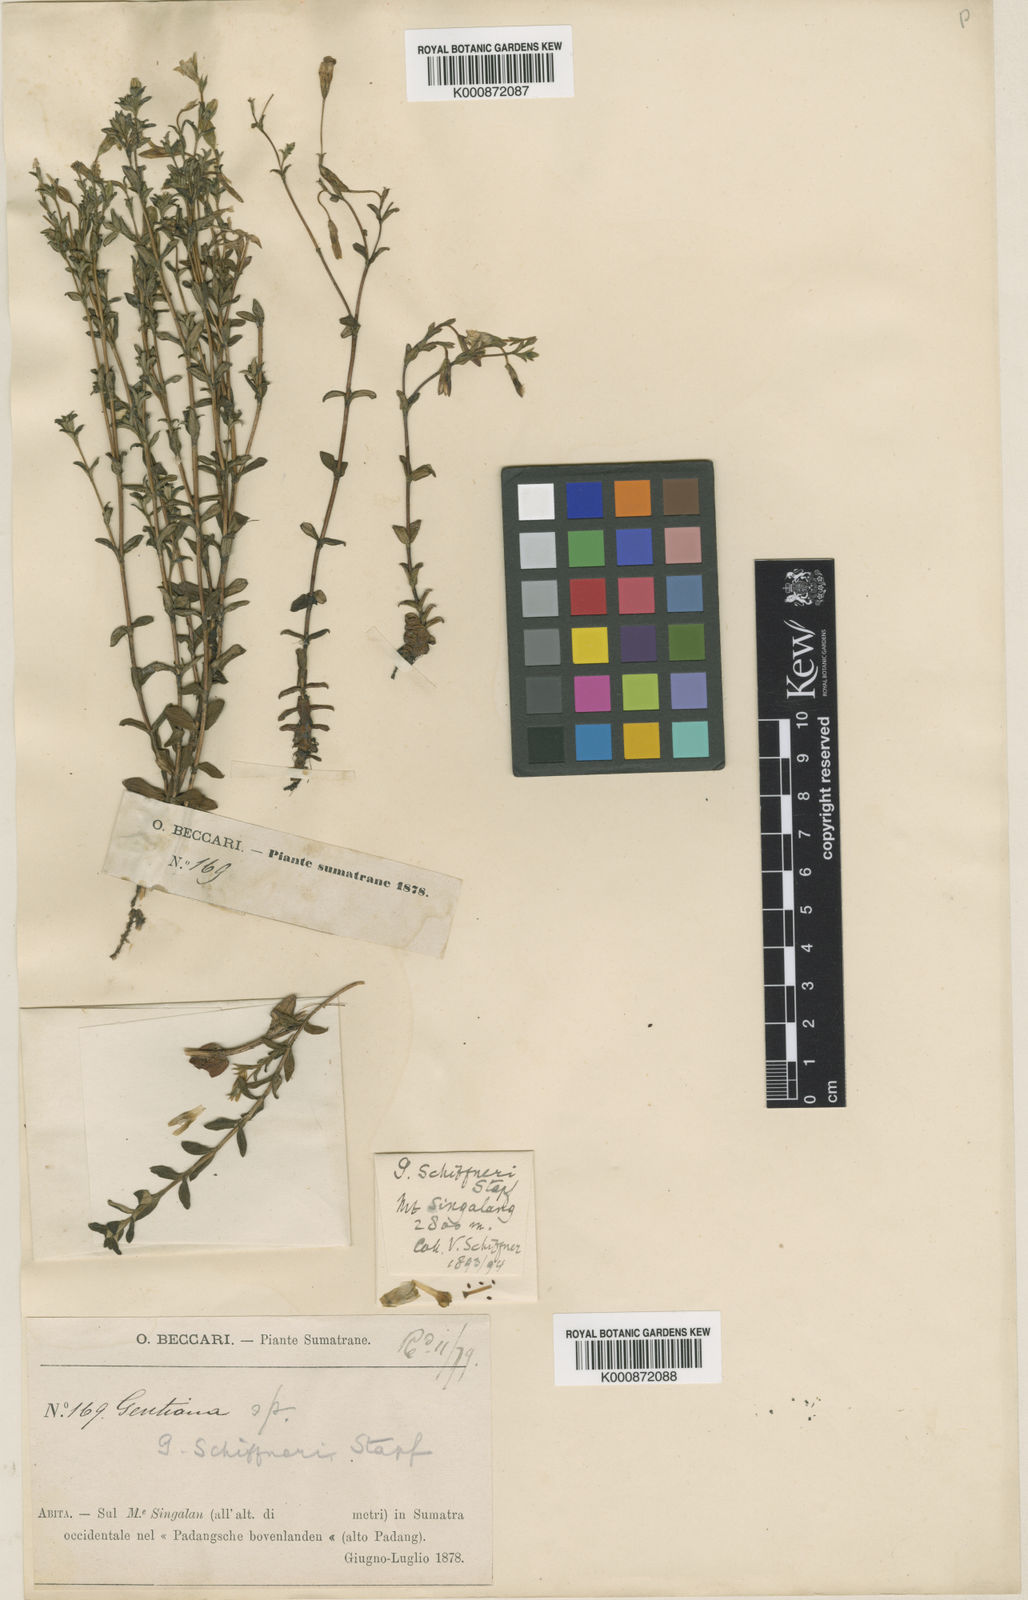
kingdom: Plantae
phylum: Tracheophyta
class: Magnoliopsida
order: Gentianales
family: Gentianaceae
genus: Gentiana
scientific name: Gentiana
